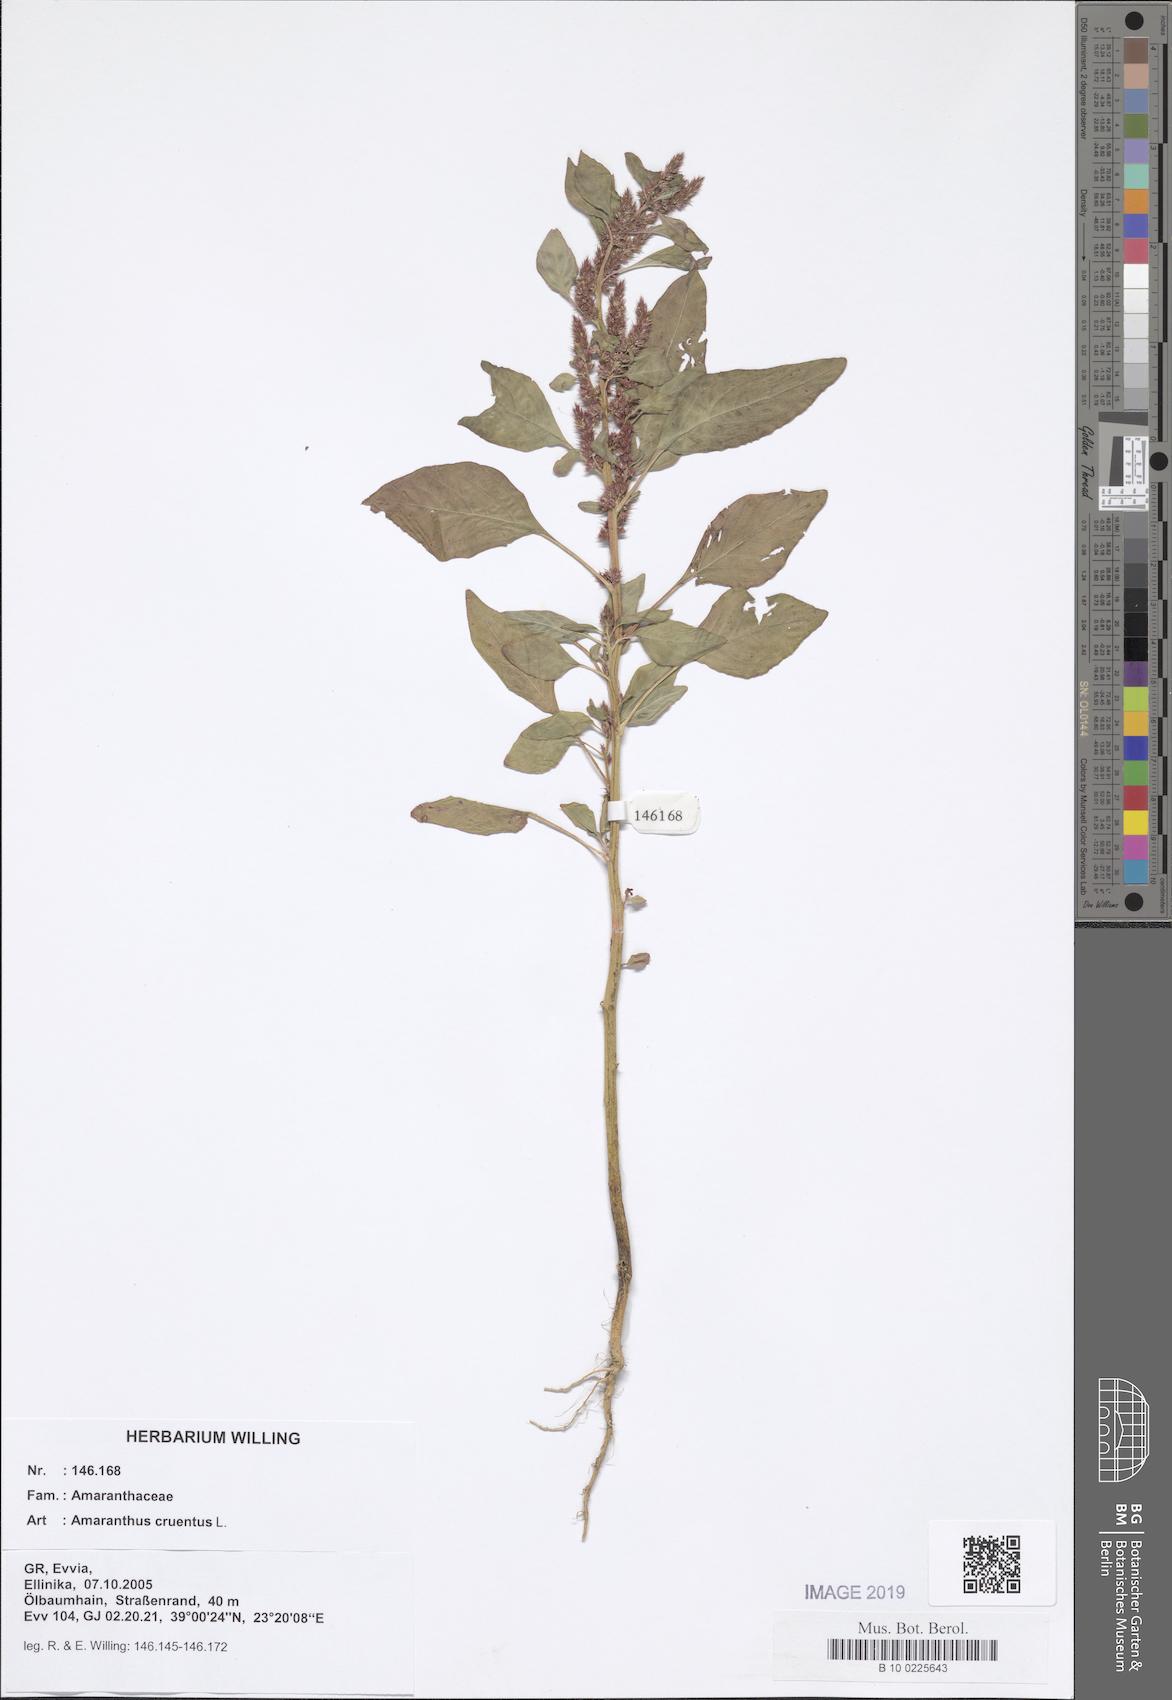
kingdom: Plantae
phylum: Tracheophyta
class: Magnoliopsida
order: Caryophyllales
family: Amaranthaceae
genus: Amaranthus
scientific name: Amaranthus cruentus
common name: Purple amaranth
